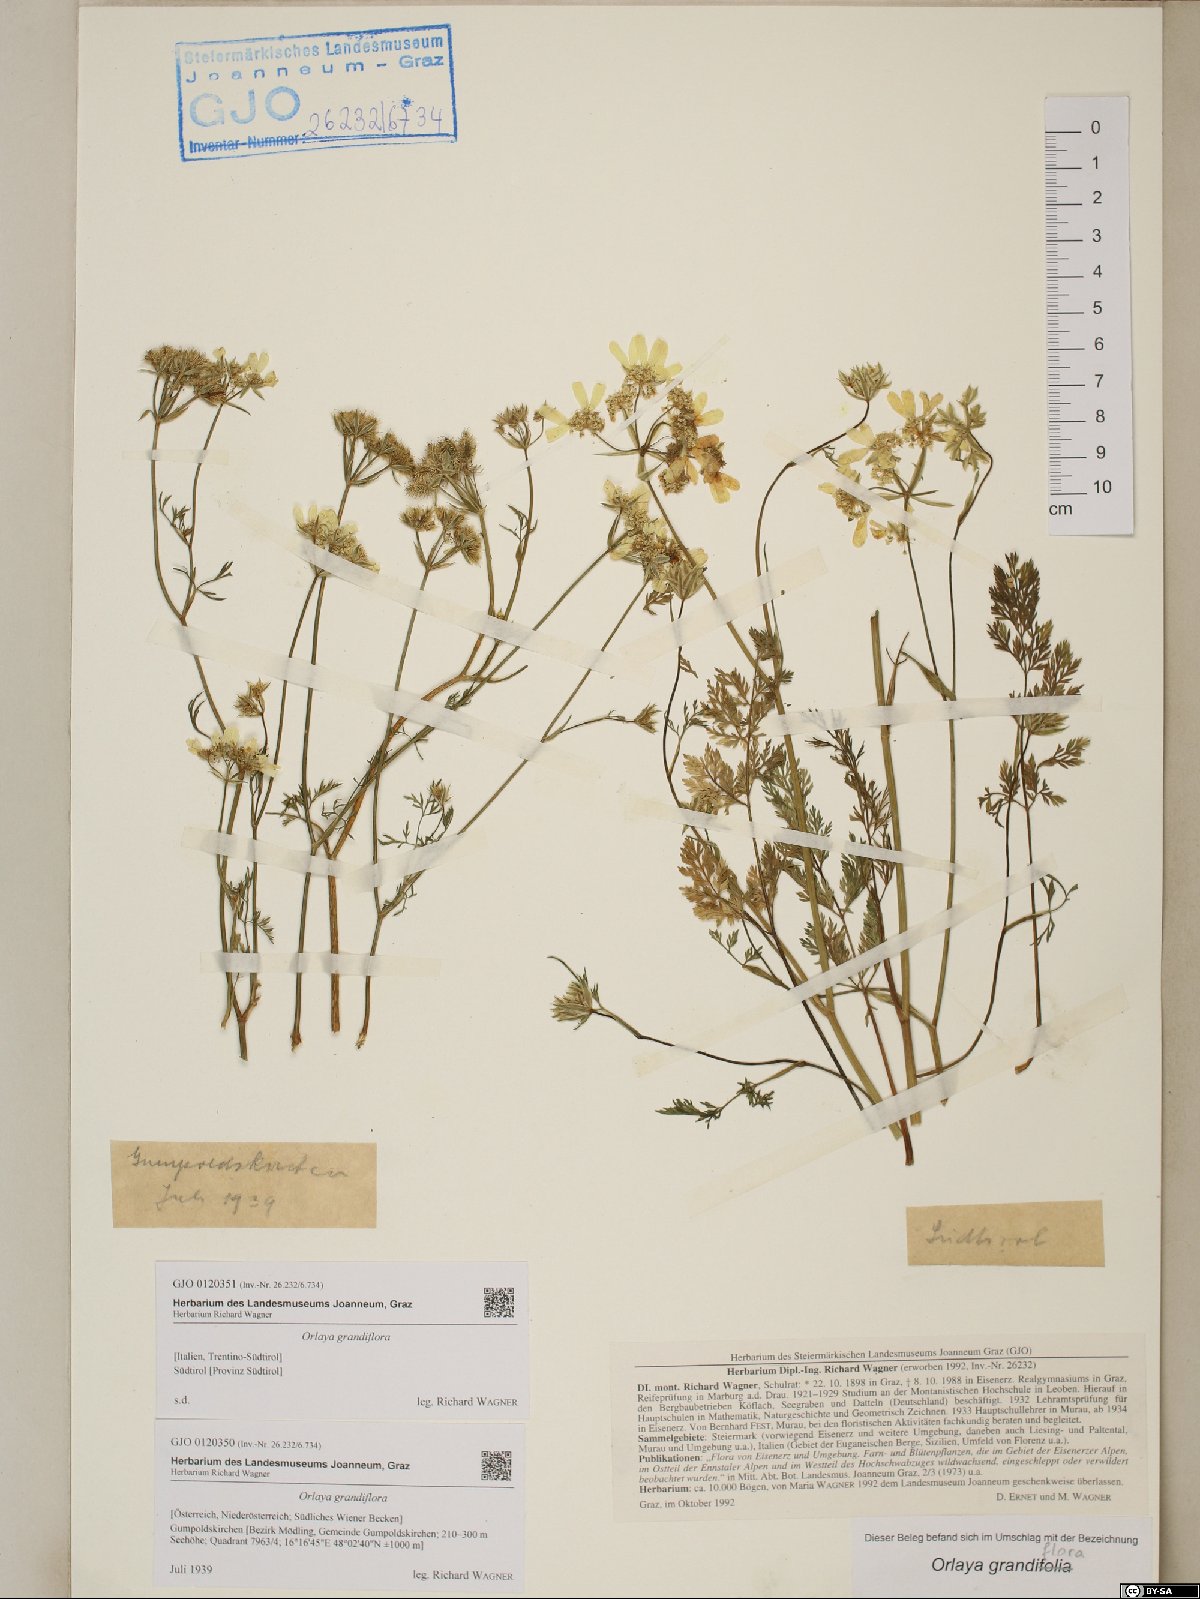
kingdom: Plantae
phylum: Tracheophyta
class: Magnoliopsida
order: Apiales
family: Apiaceae
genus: Orlaya
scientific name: Orlaya grandiflora
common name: White lace flower
